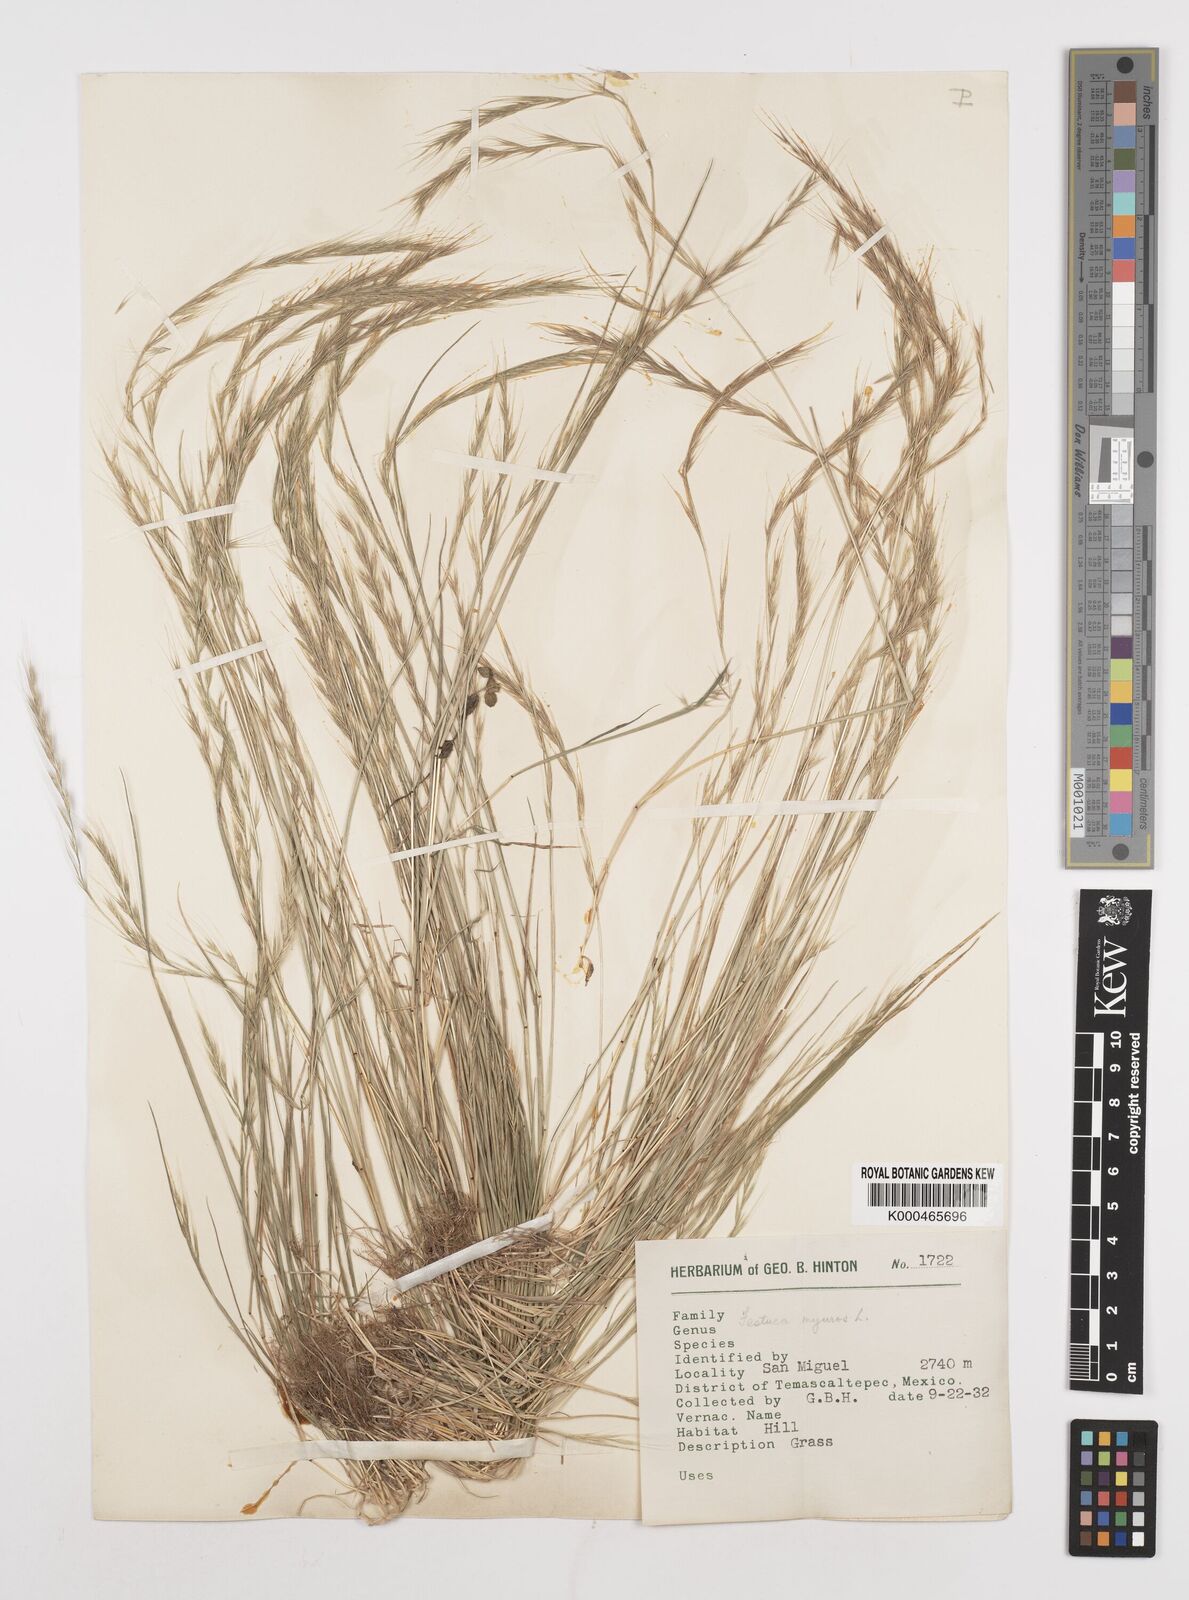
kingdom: Plantae
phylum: Tracheophyta
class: Liliopsida
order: Poales
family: Poaceae
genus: Festuca
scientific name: Festuca myuros
